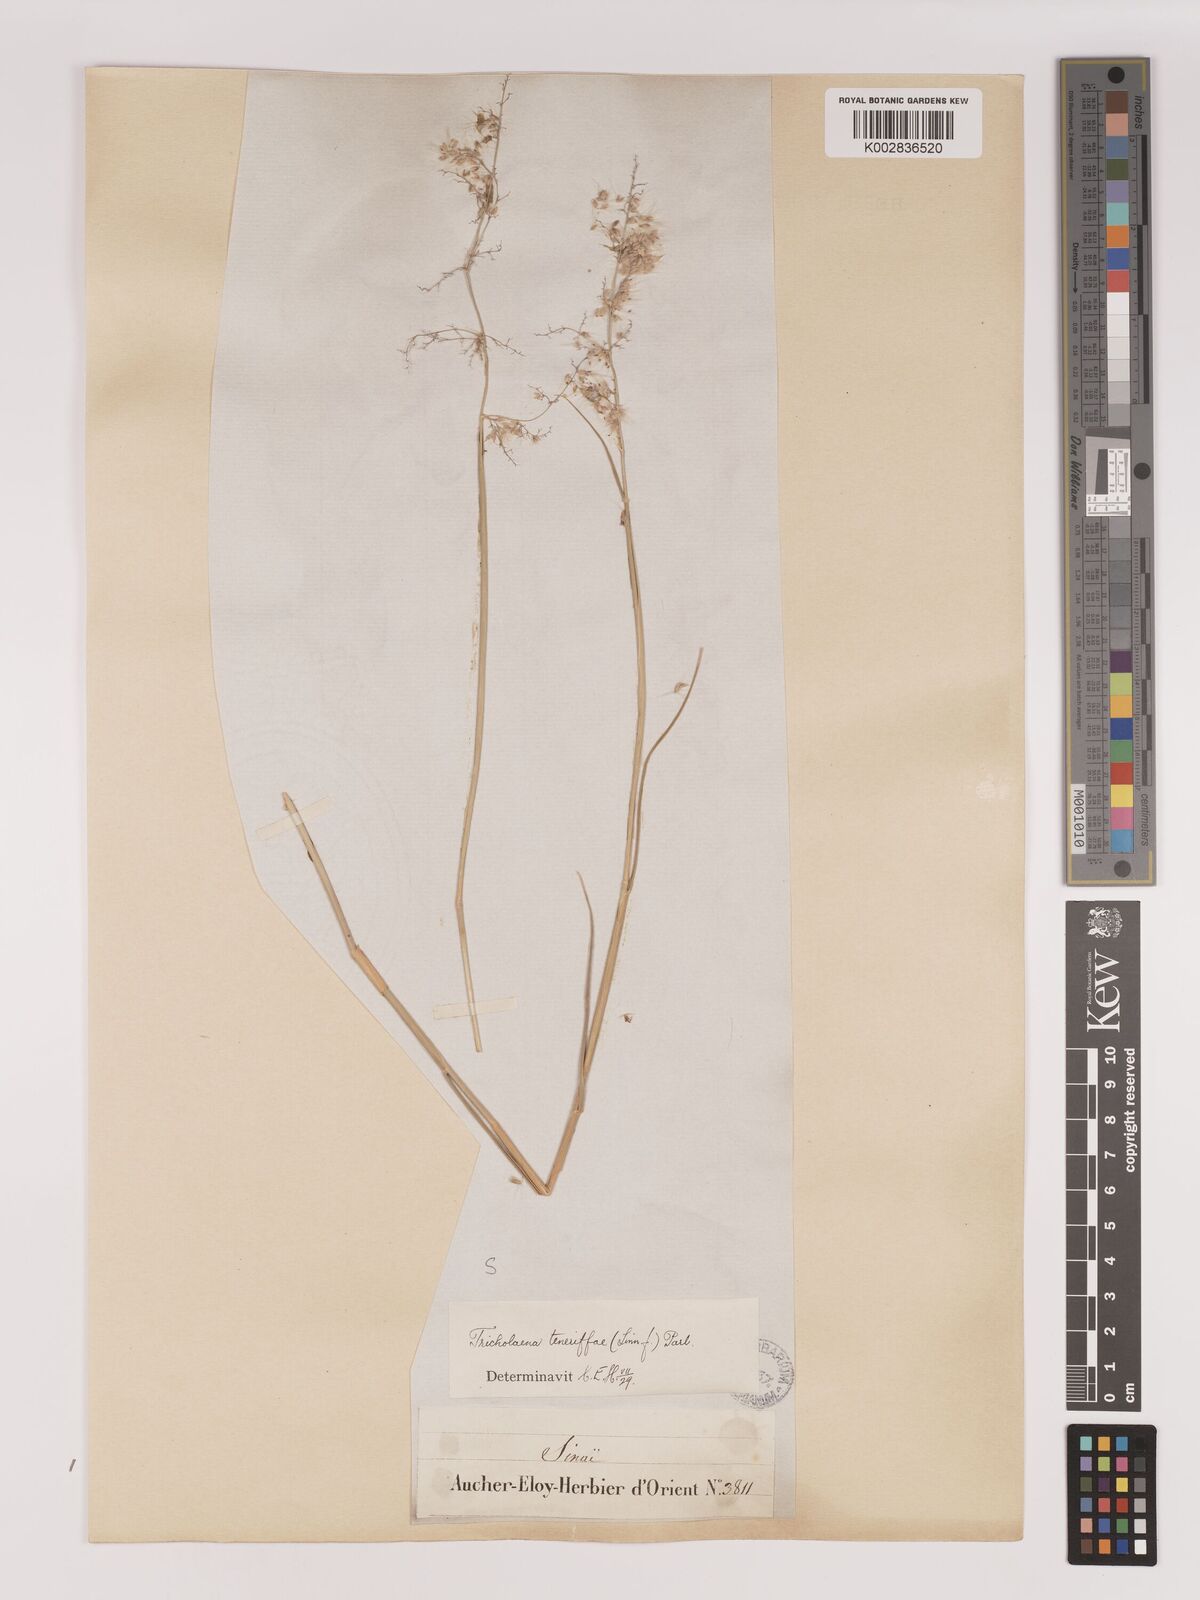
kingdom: Plantae
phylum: Tracheophyta
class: Liliopsida
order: Poales
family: Poaceae
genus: Tricholaena
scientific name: Tricholaena teneriffae
